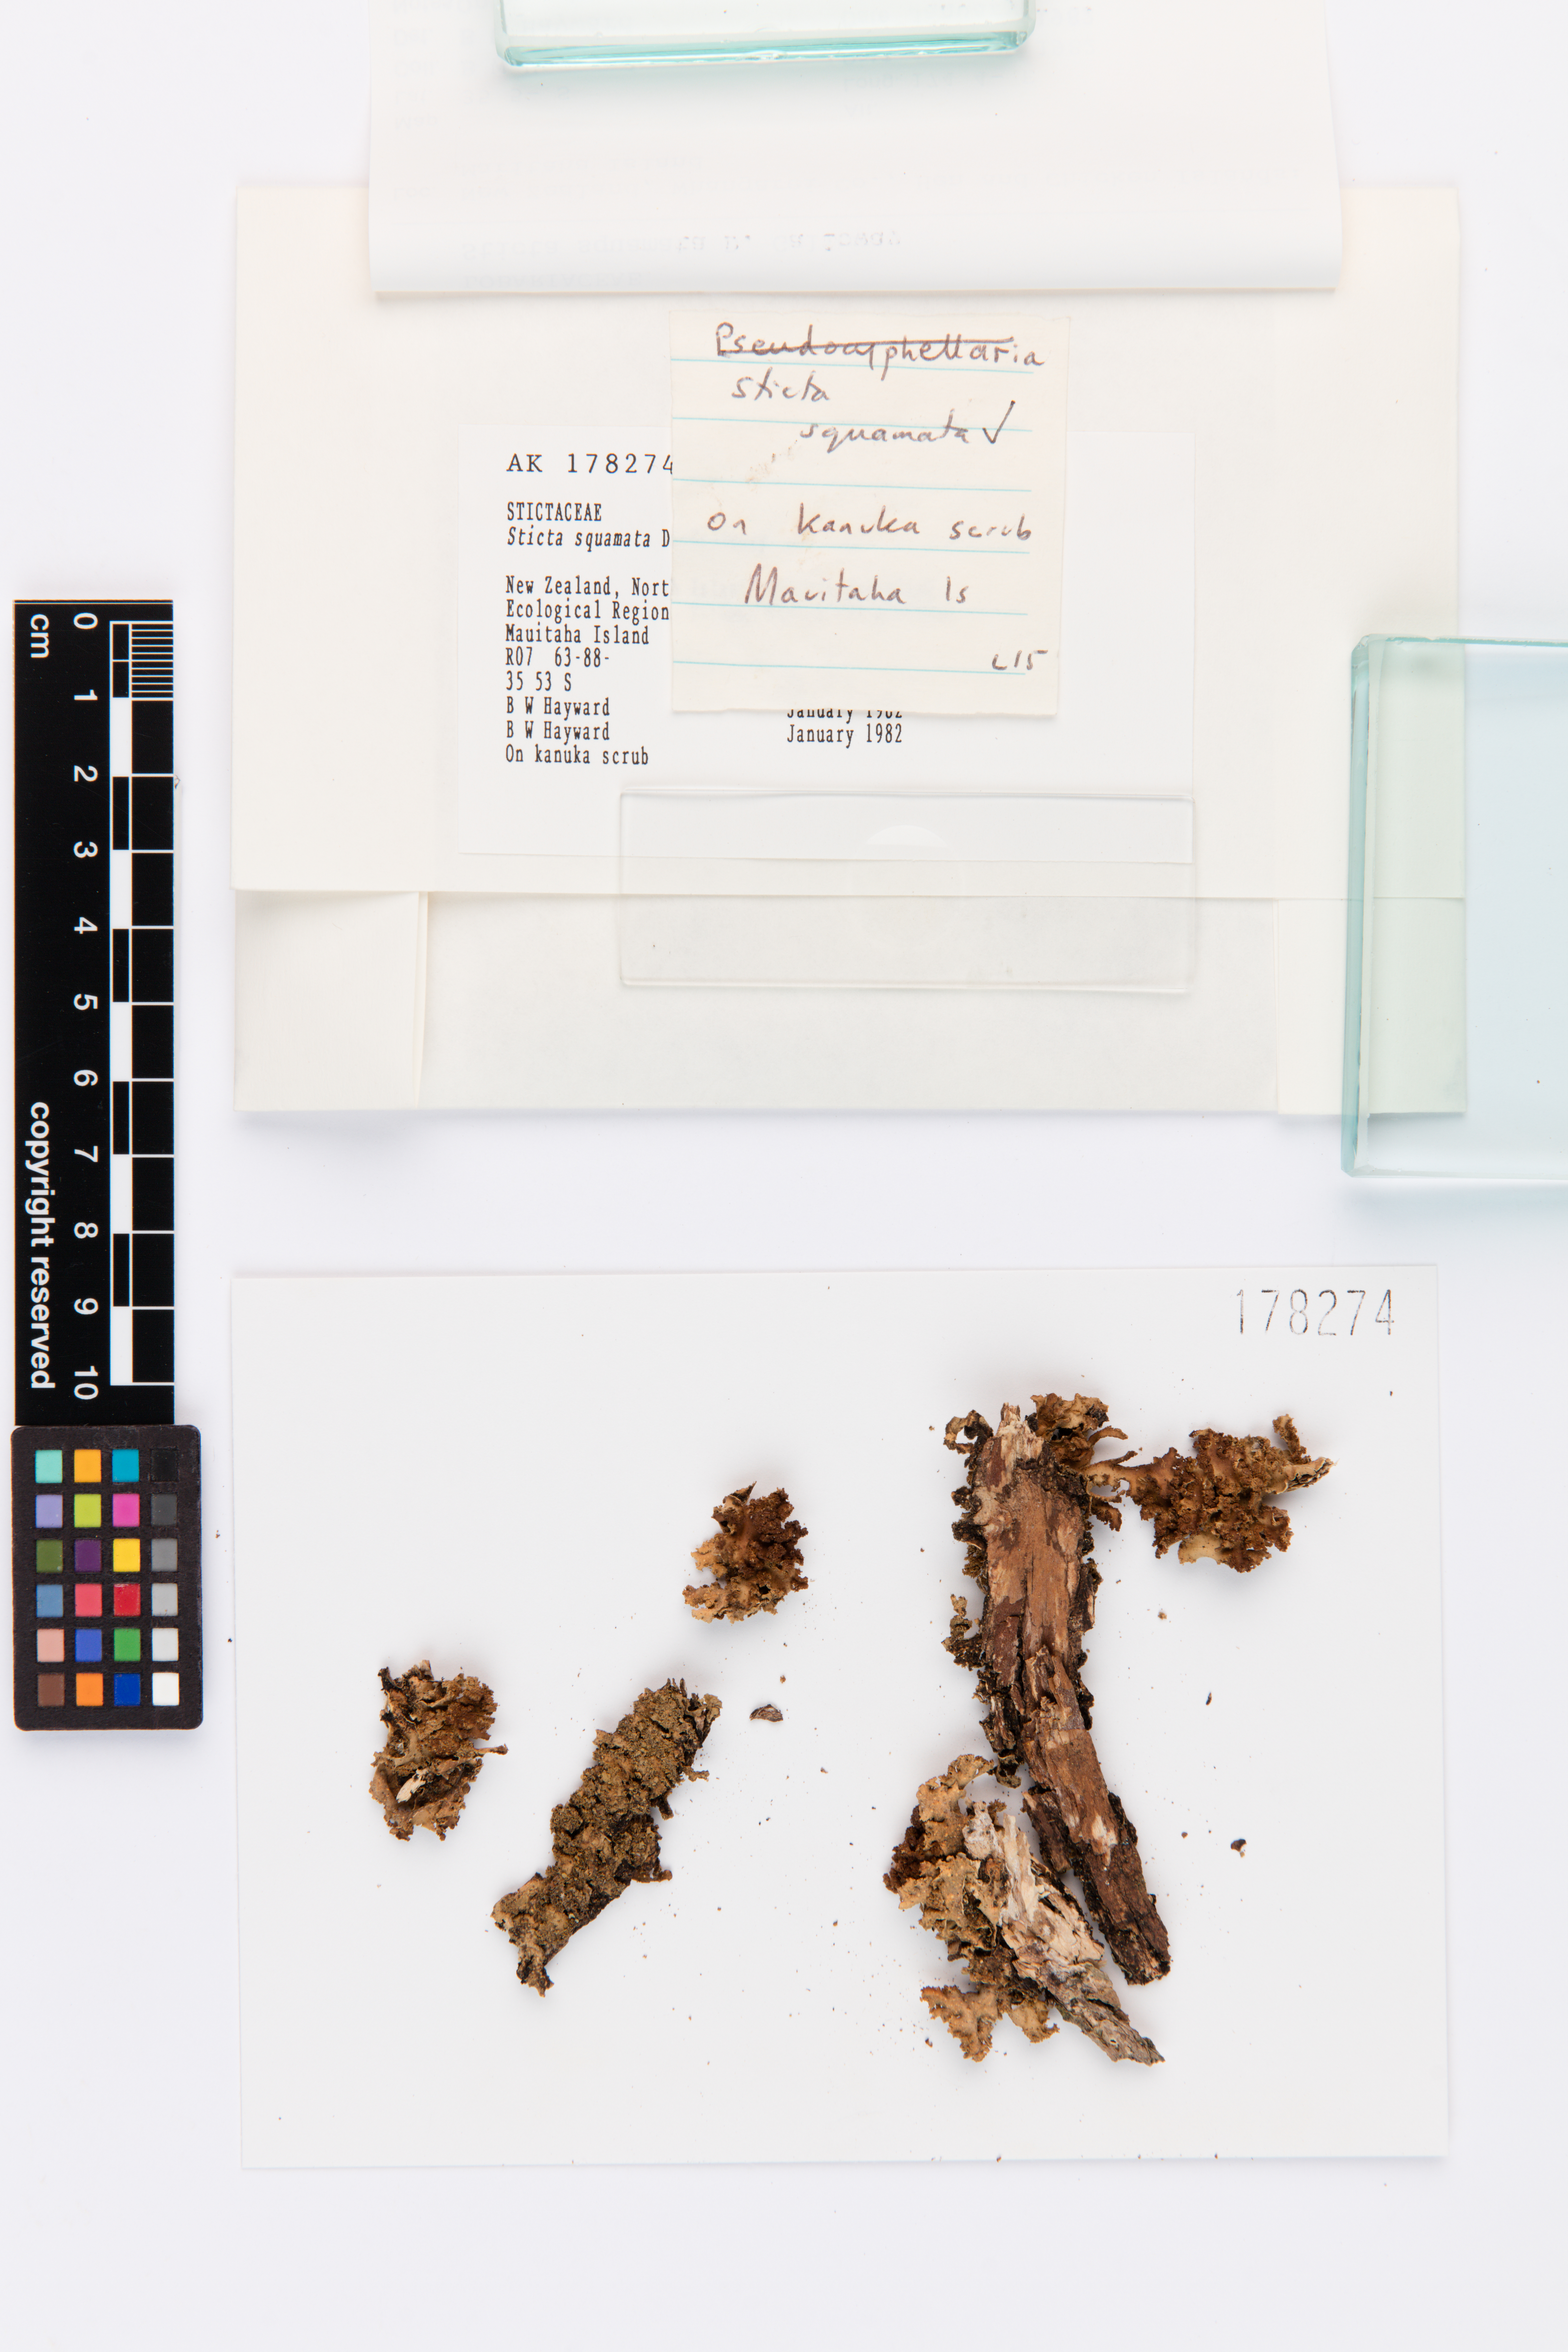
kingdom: Fungi
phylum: Ascomycota
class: Lecanoromycetes
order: Peltigerales
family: Lobariaceae
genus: Sticta
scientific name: Sticta squamata
